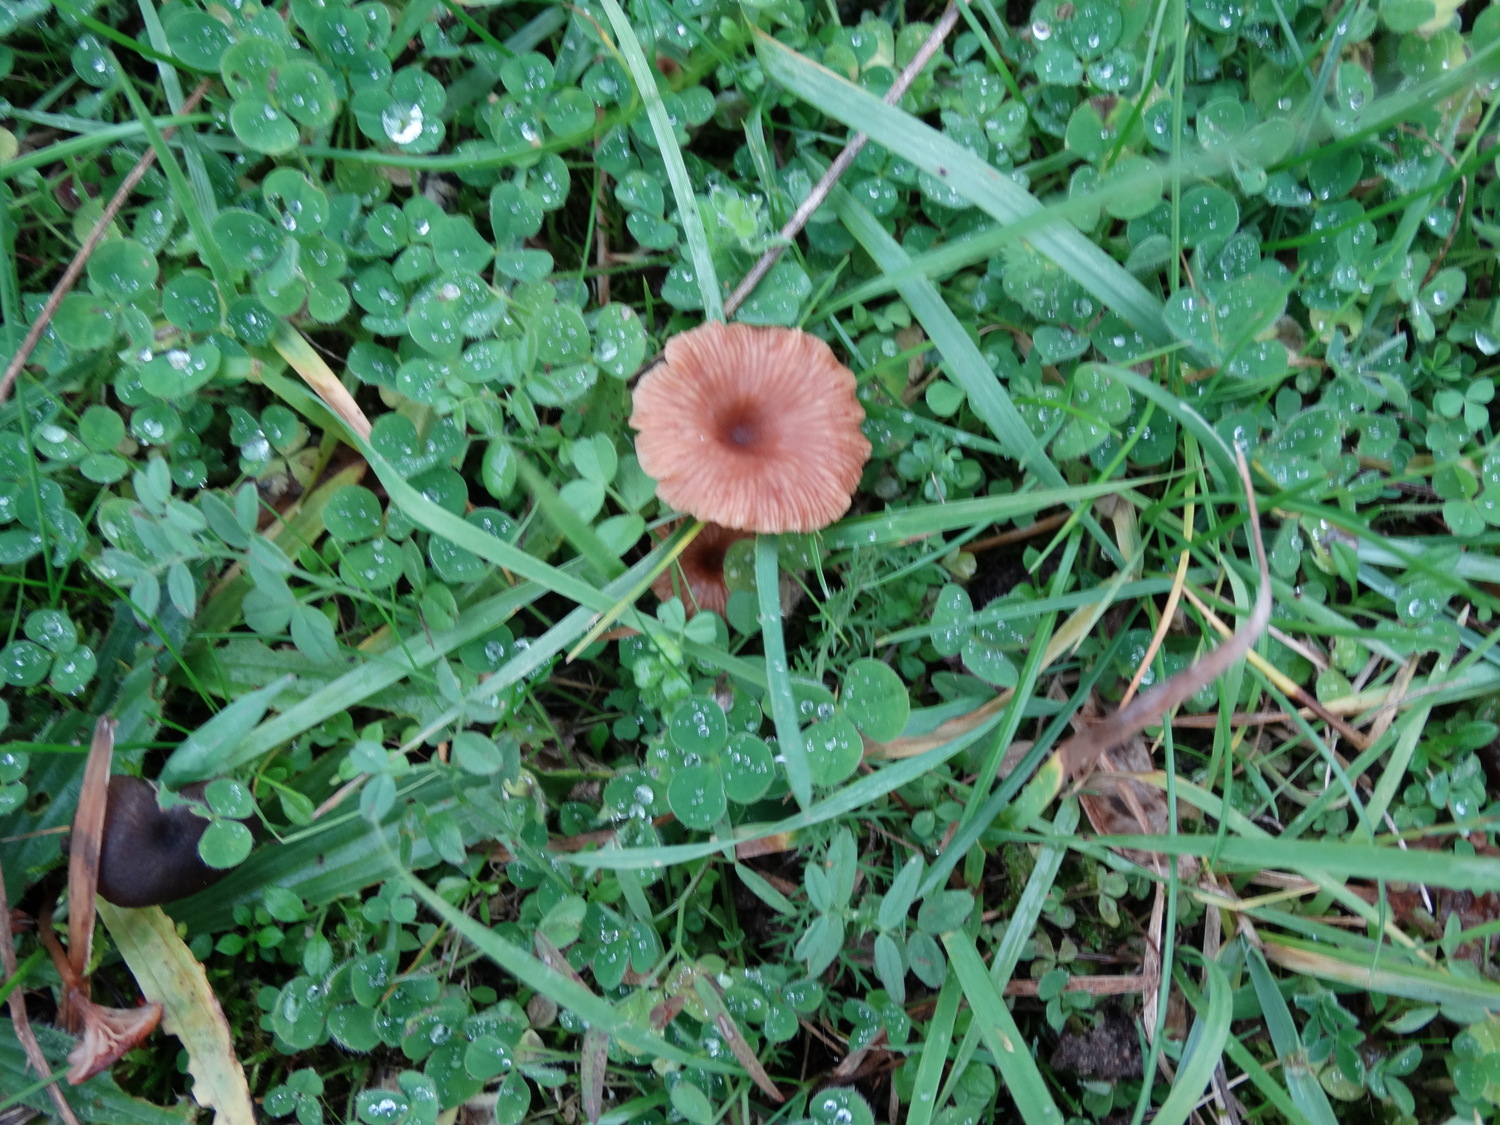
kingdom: Fungi
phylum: Basidiomycota
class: Agaricomycetes
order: Agaricales
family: Tricholomataceae
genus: Omphalina
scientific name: Omphalina pyxidata
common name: rødbrun navlehat
